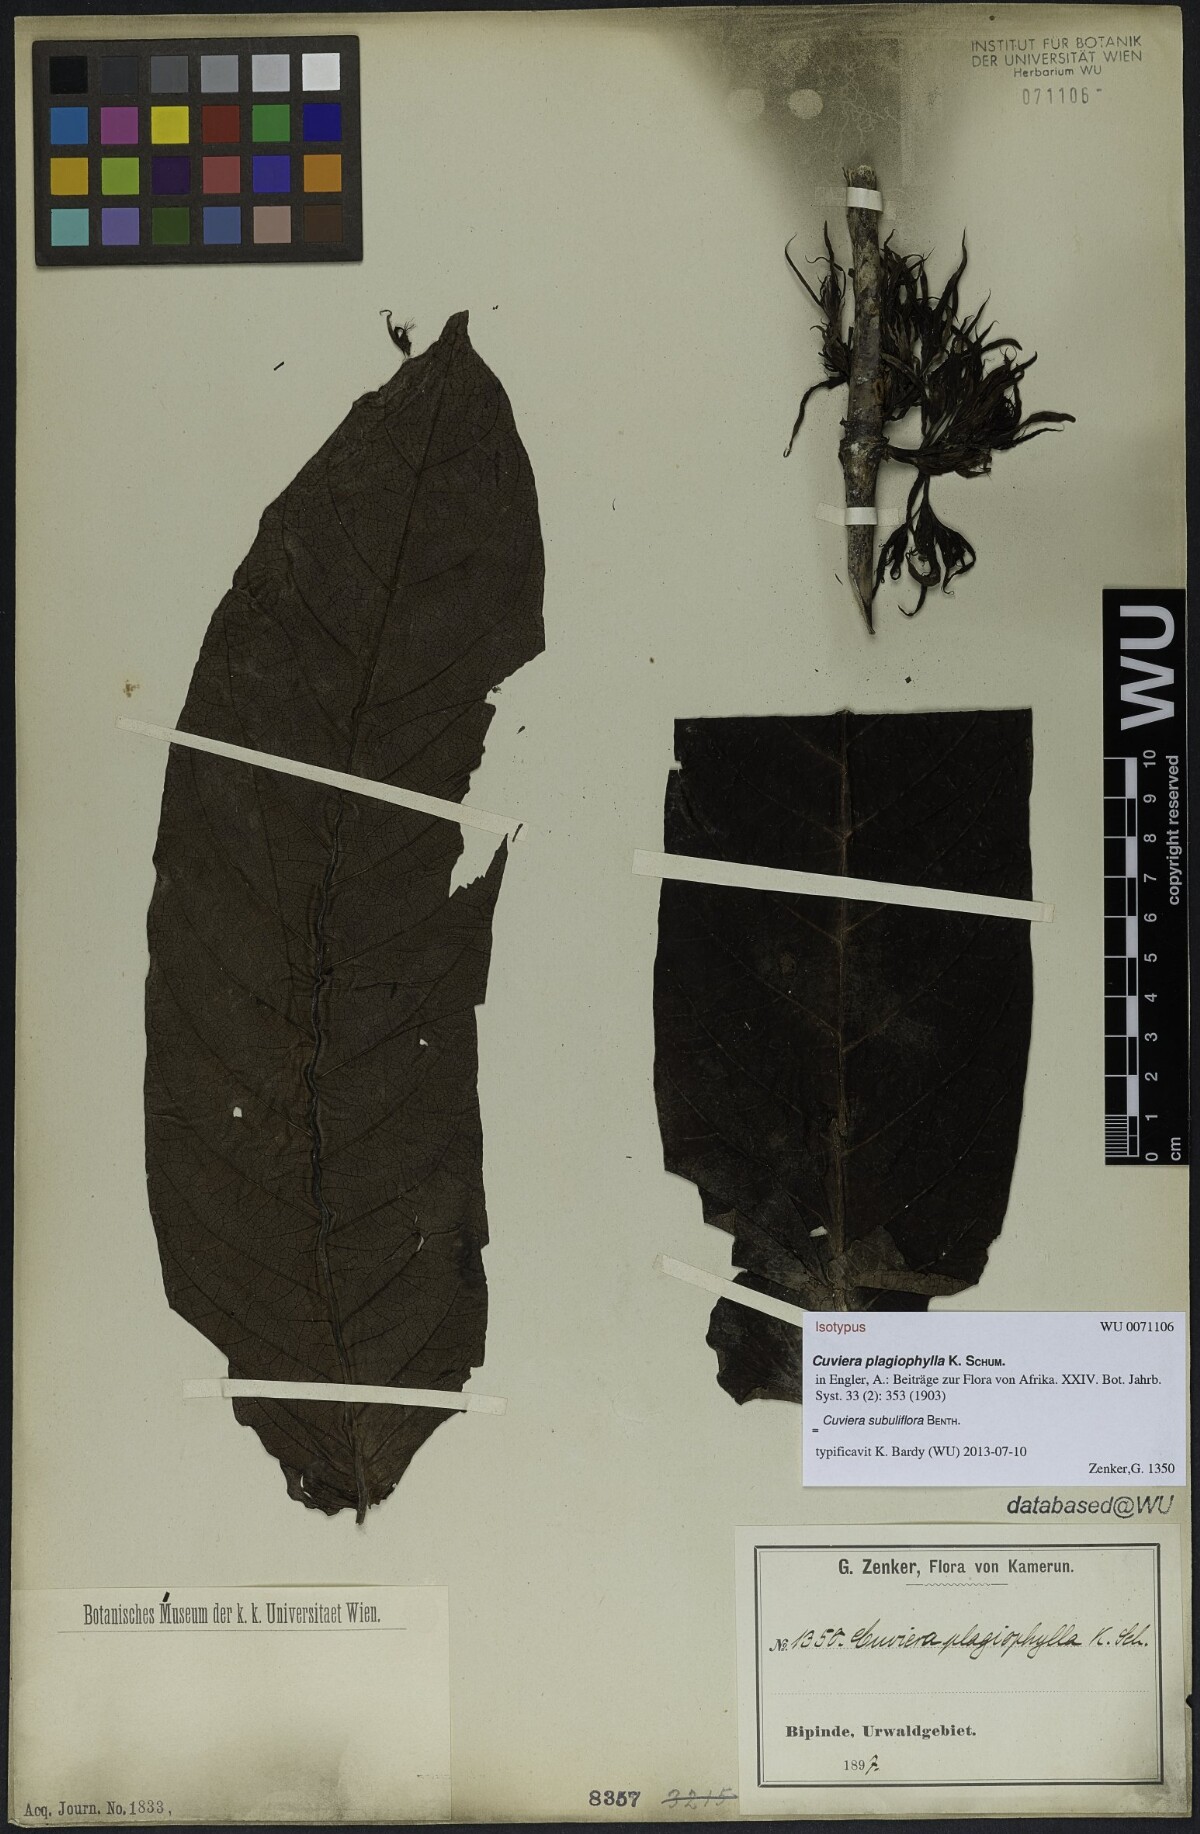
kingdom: Plantae
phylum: Tracheophyta
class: Magnoliopsida
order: Gentianales
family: Rubiaceae
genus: Cuviera
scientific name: Cuviera subuliflora
